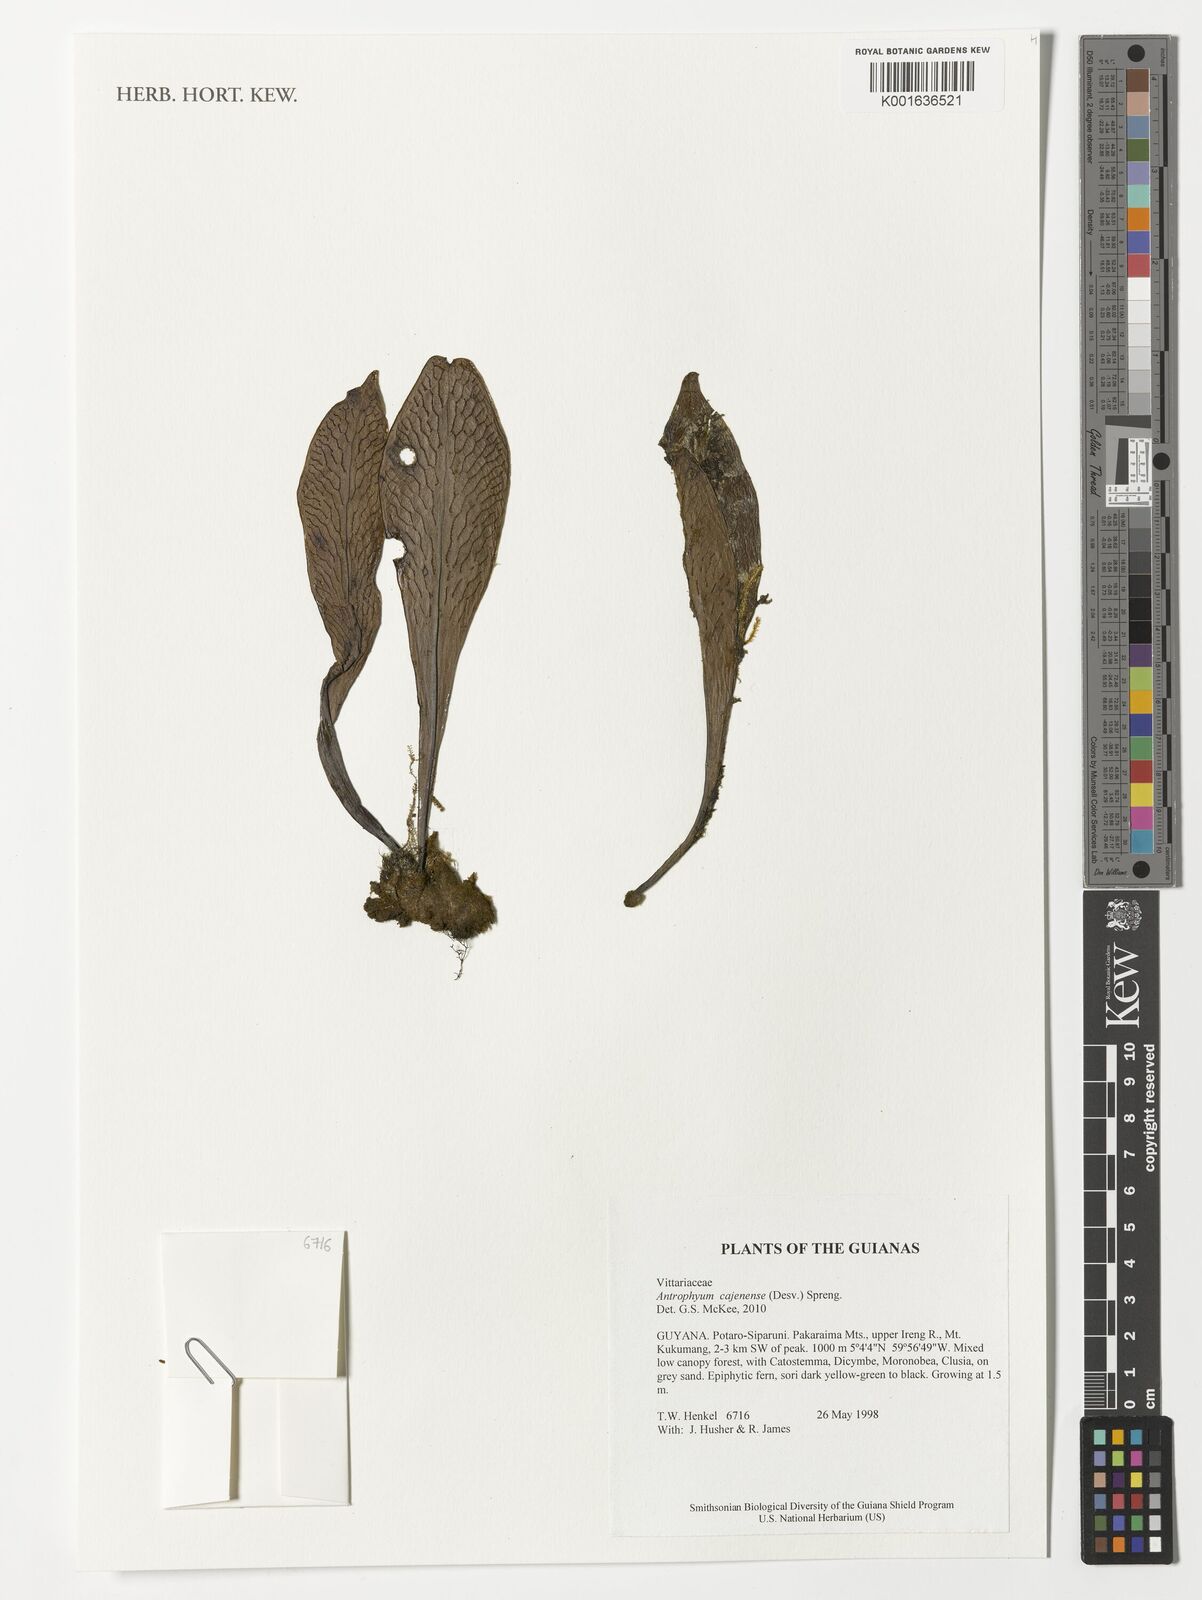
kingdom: Plantae
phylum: Tracheophyta
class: Polypodiopsida
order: Polypodiales
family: Pteridaceae
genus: Polytaenium
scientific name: Polytaenium cajenense
